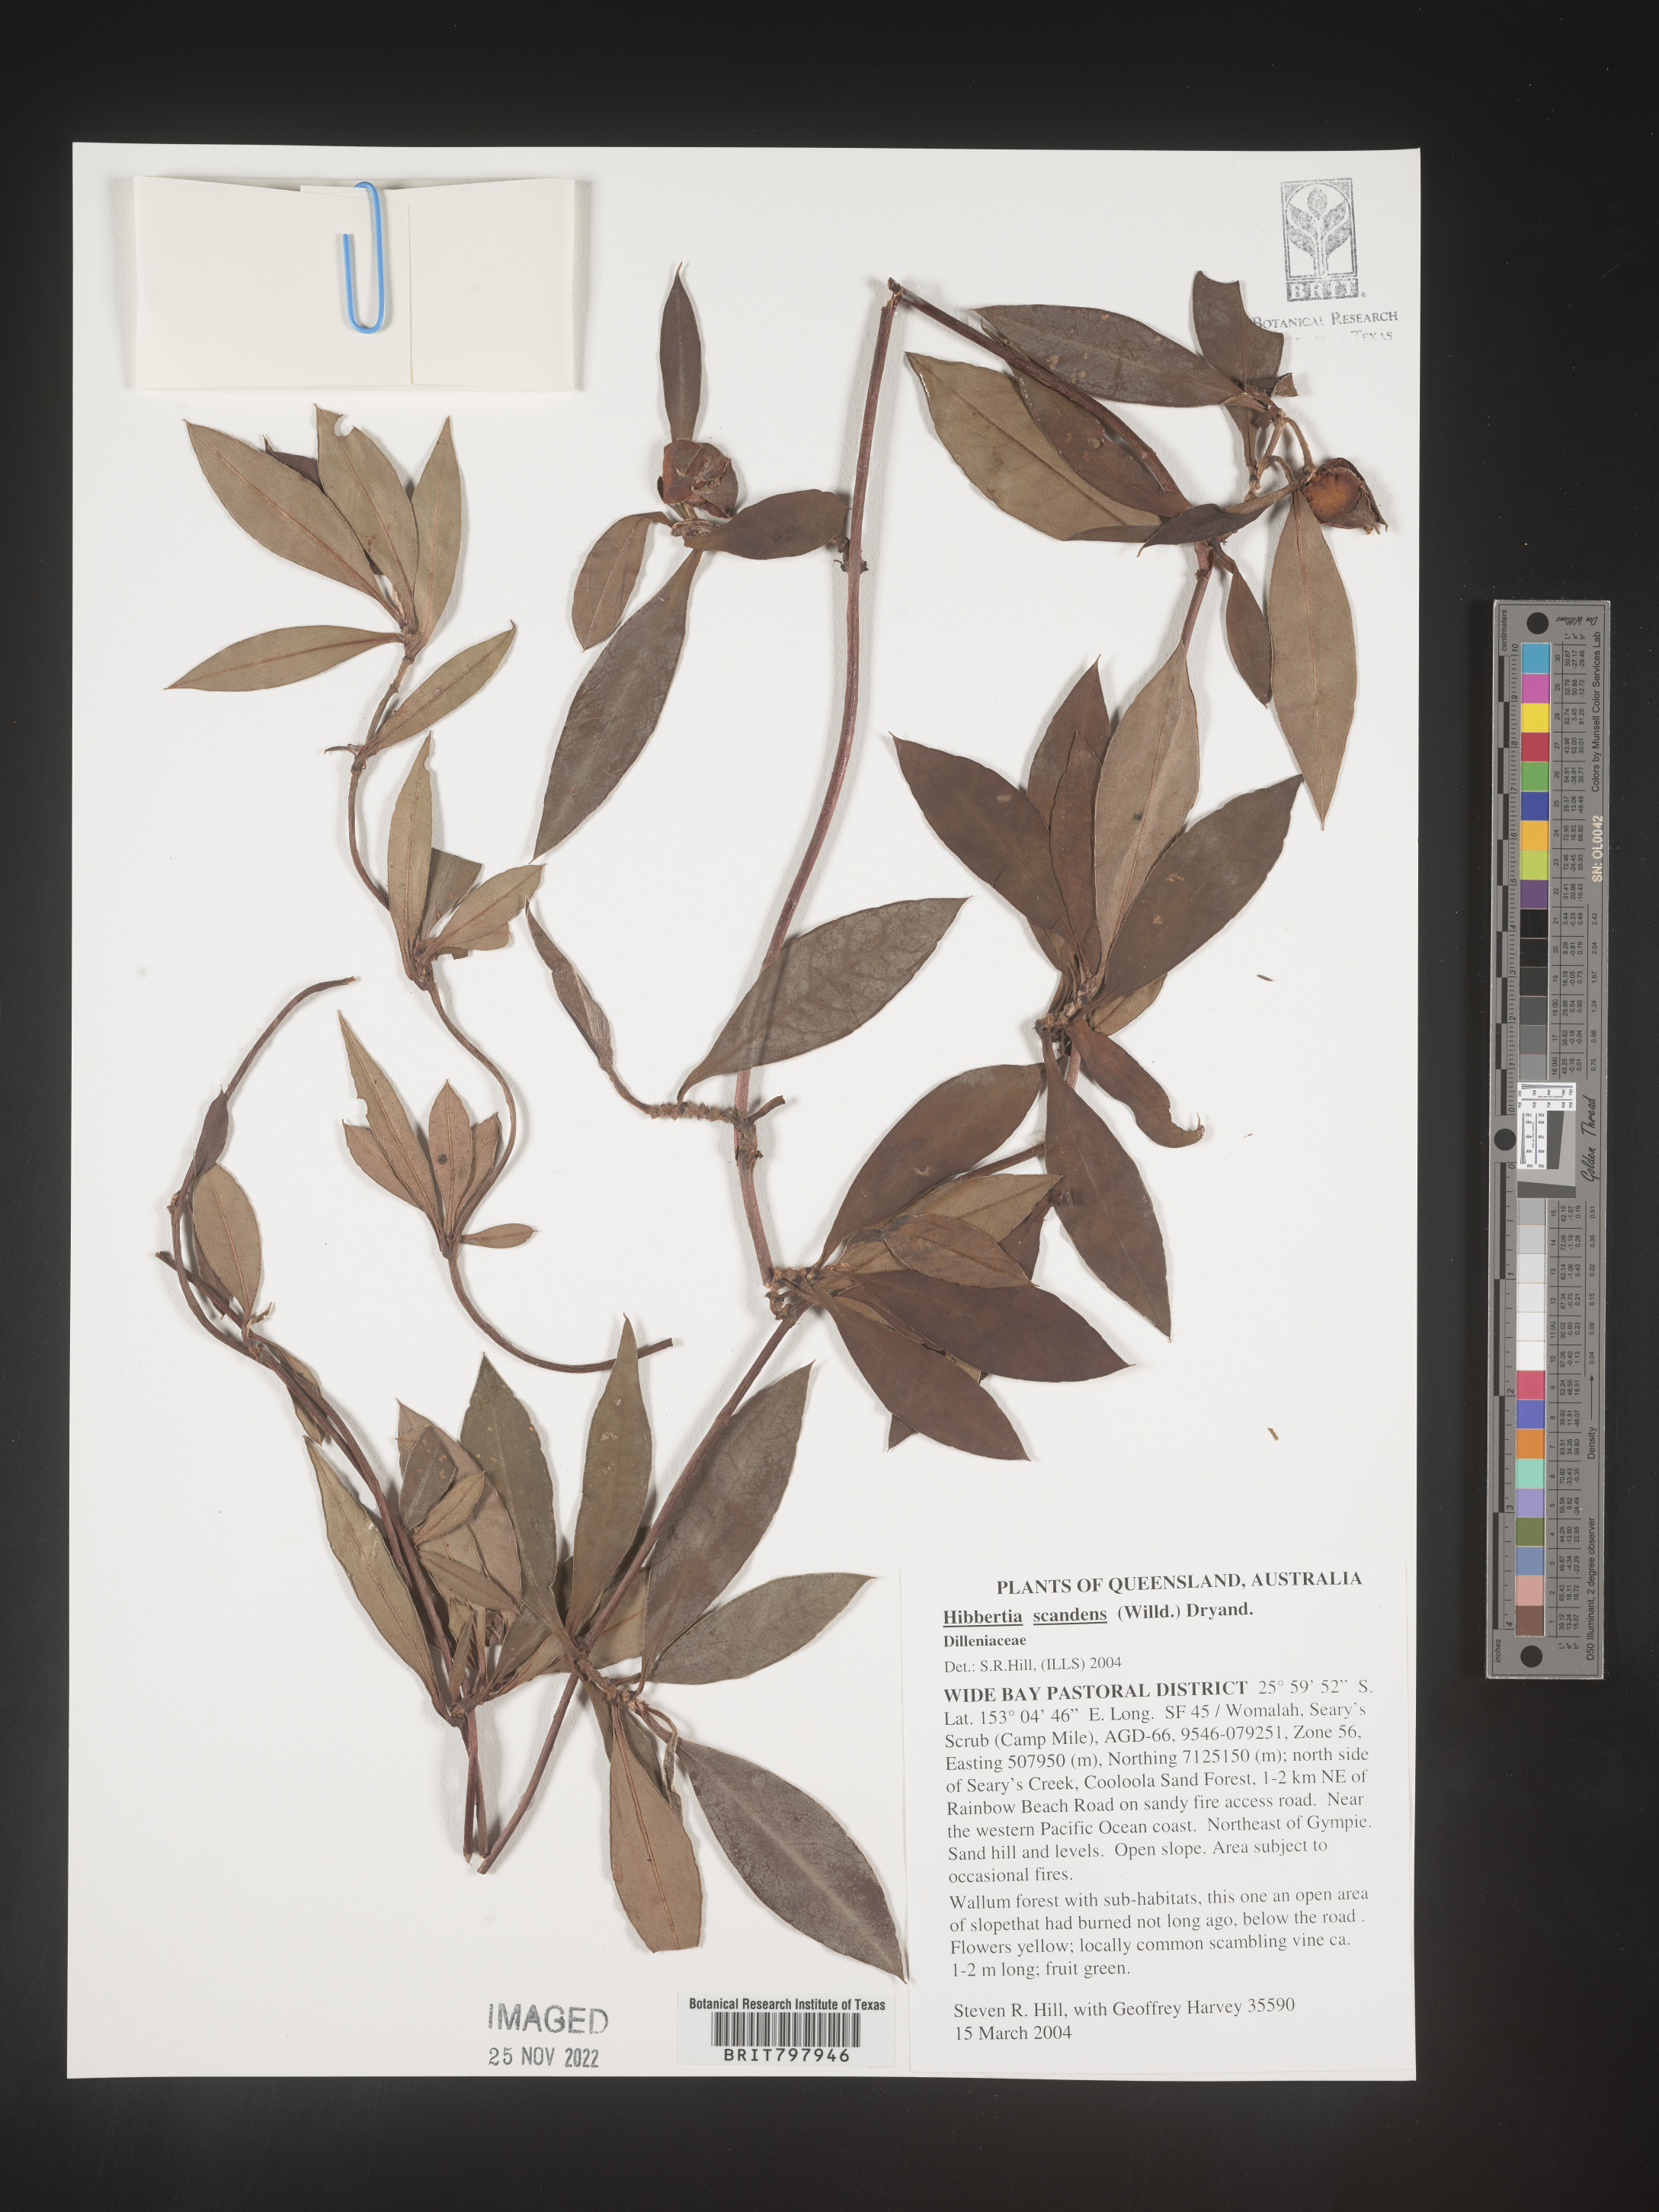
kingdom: Plantae
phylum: Tracheophyta
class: Magnoliopsida
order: Dilleniales
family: Dilleniaceae
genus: Hibbertia
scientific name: Hibbertia
